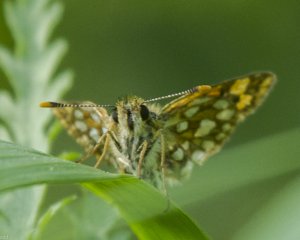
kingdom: Animalia
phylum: Arthropoda
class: Insecta
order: Lepidoptera
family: Hesperiidae
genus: Carterocephalus
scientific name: Carterocephalus palaemon
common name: Chequered Skipper
